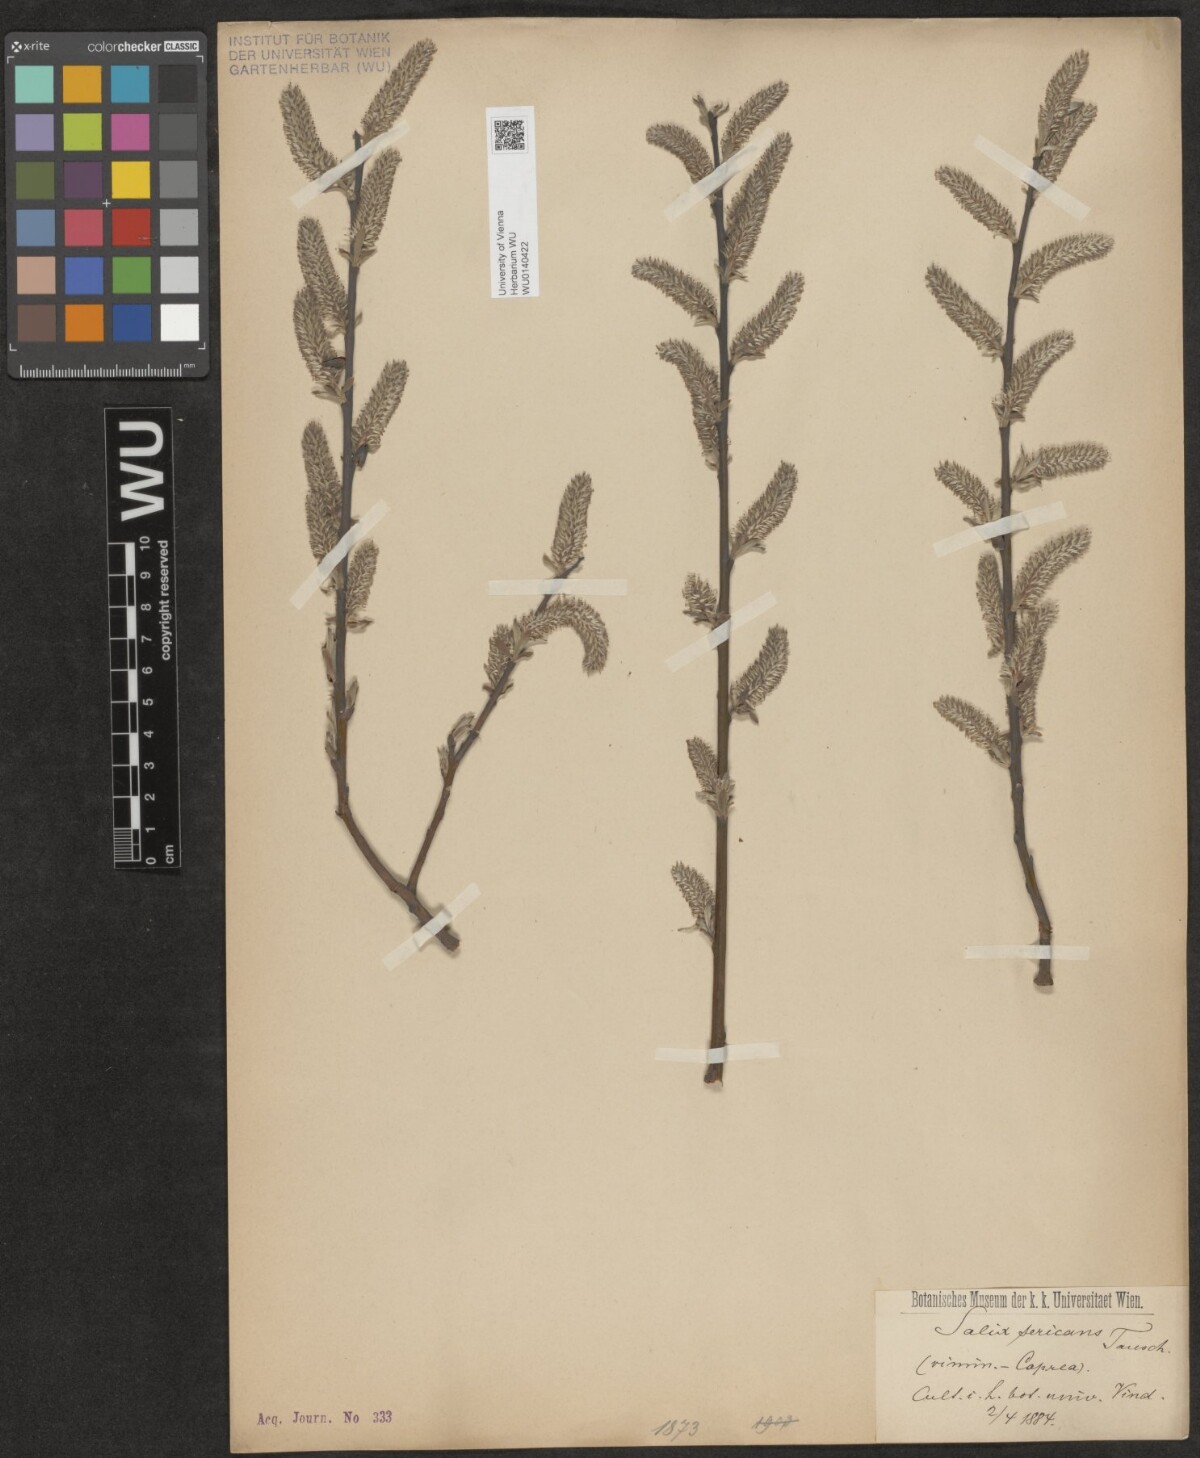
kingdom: Plantae
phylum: Tracheophyta
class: Magnoliopsida
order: Malpighiales
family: Salicaceae
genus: Salix
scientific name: Salix gmelinii
